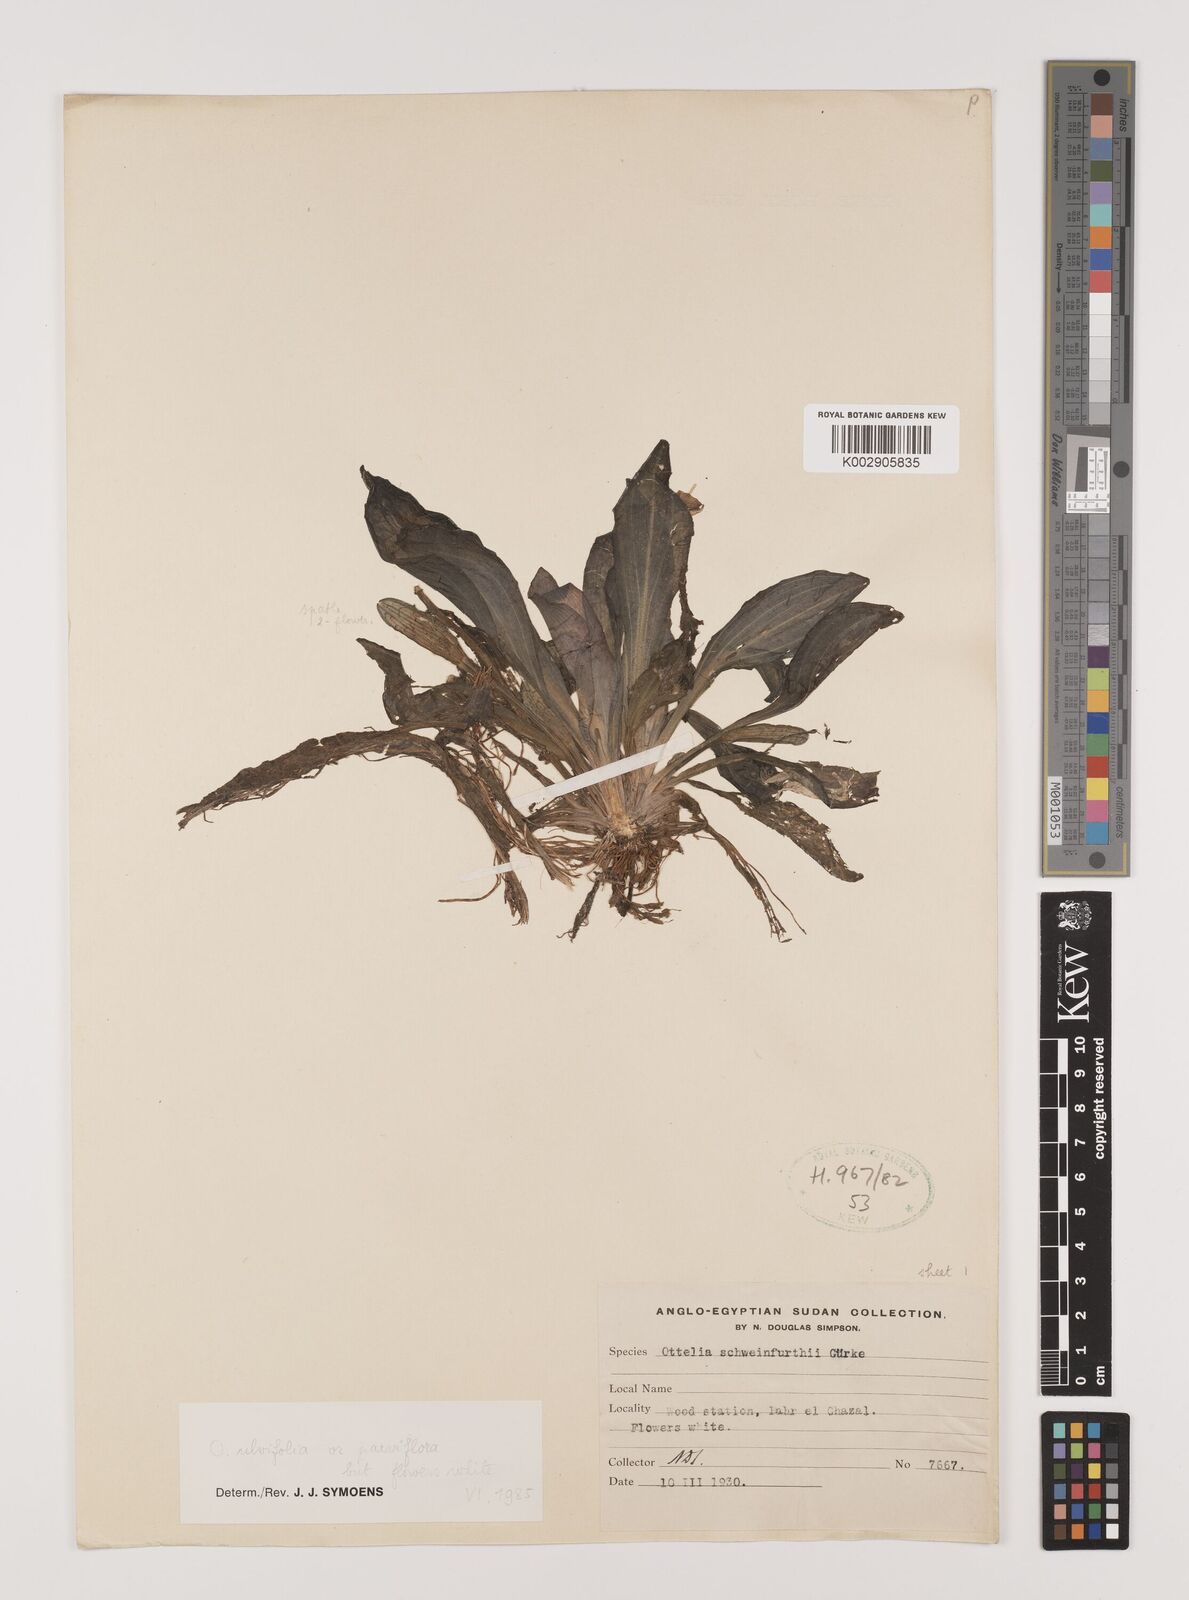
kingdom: Plantae
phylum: Tracheophyta
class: Liliopsida
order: Alismatales
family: Hydrocharitaceae
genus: Ottelia
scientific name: Ottelia ulvifolia
